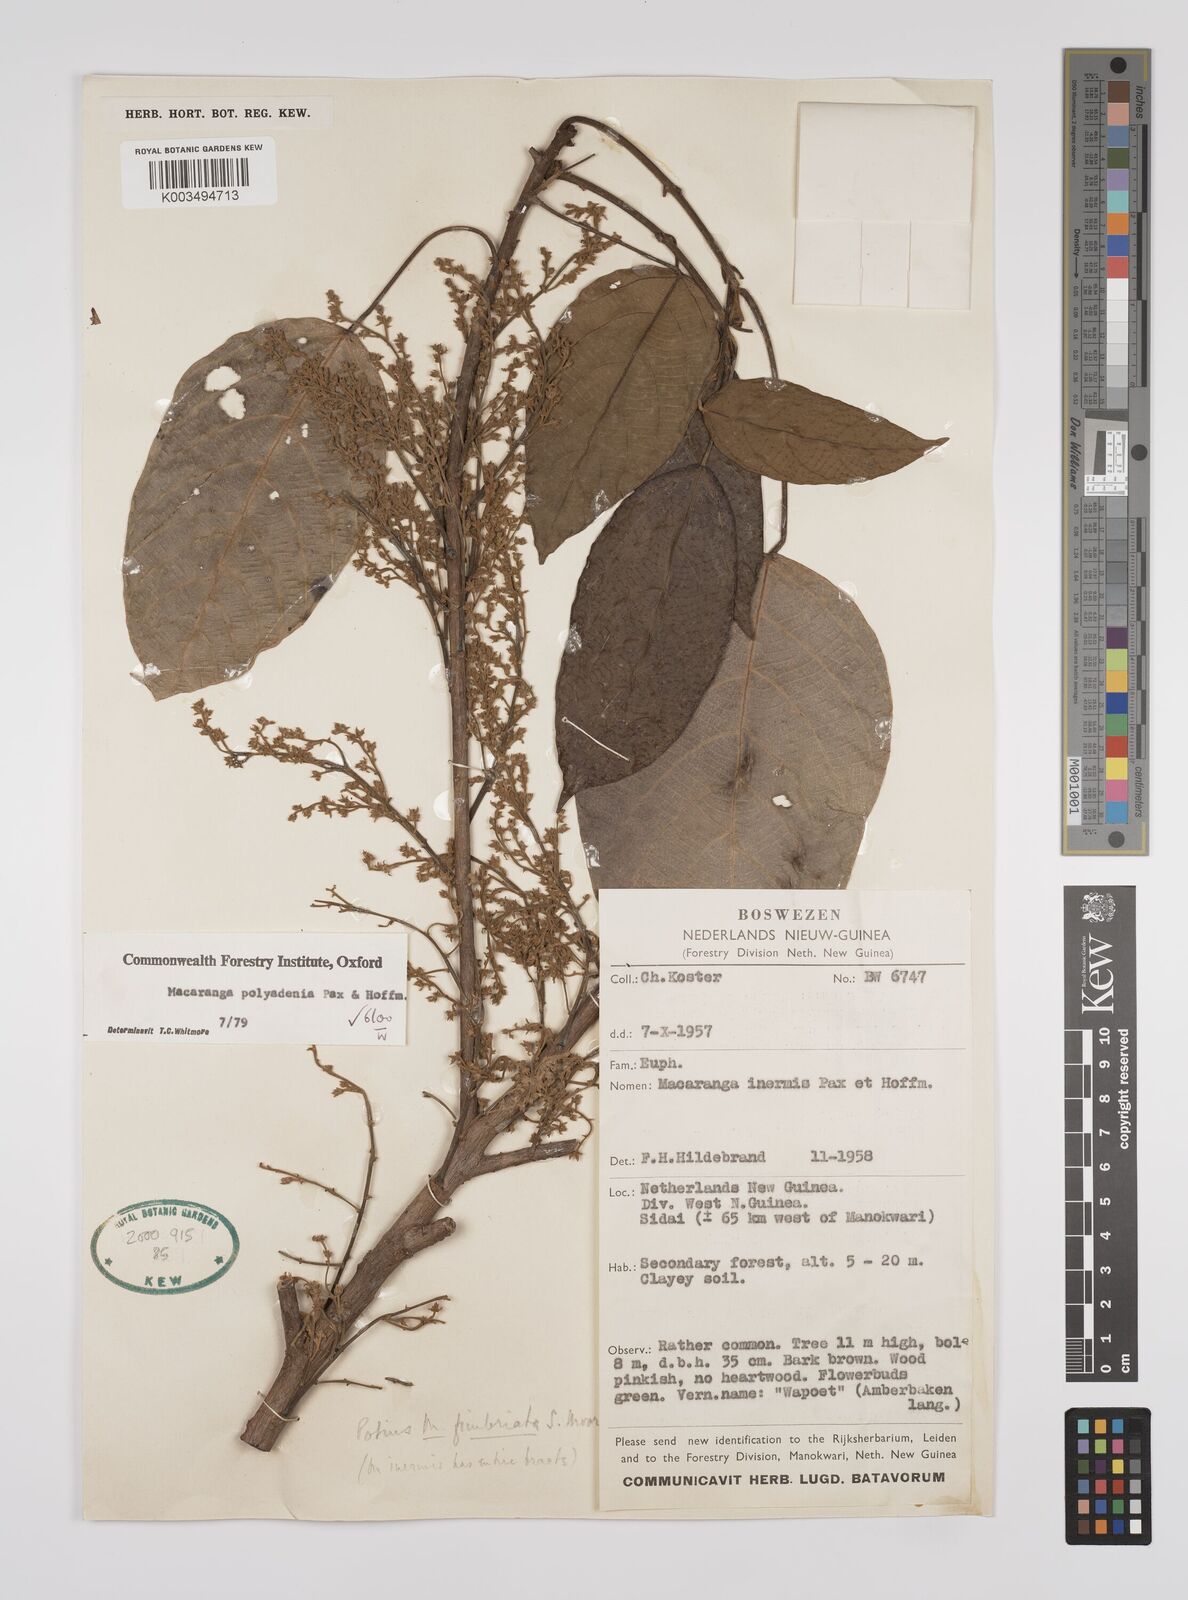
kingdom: Plantae
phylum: Tracheophyta
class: Magnoliopsida
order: Malpighiales
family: Euphorbiaceae
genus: Macaranga
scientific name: Macaranga polyadenia
